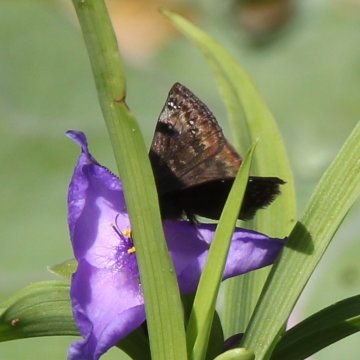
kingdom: Animalia
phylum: Arthropoda
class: Insecta
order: Lepidoptera
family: Hesperiidae
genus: Gesta
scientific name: Gesta
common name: Wild Indigo Duskywing
